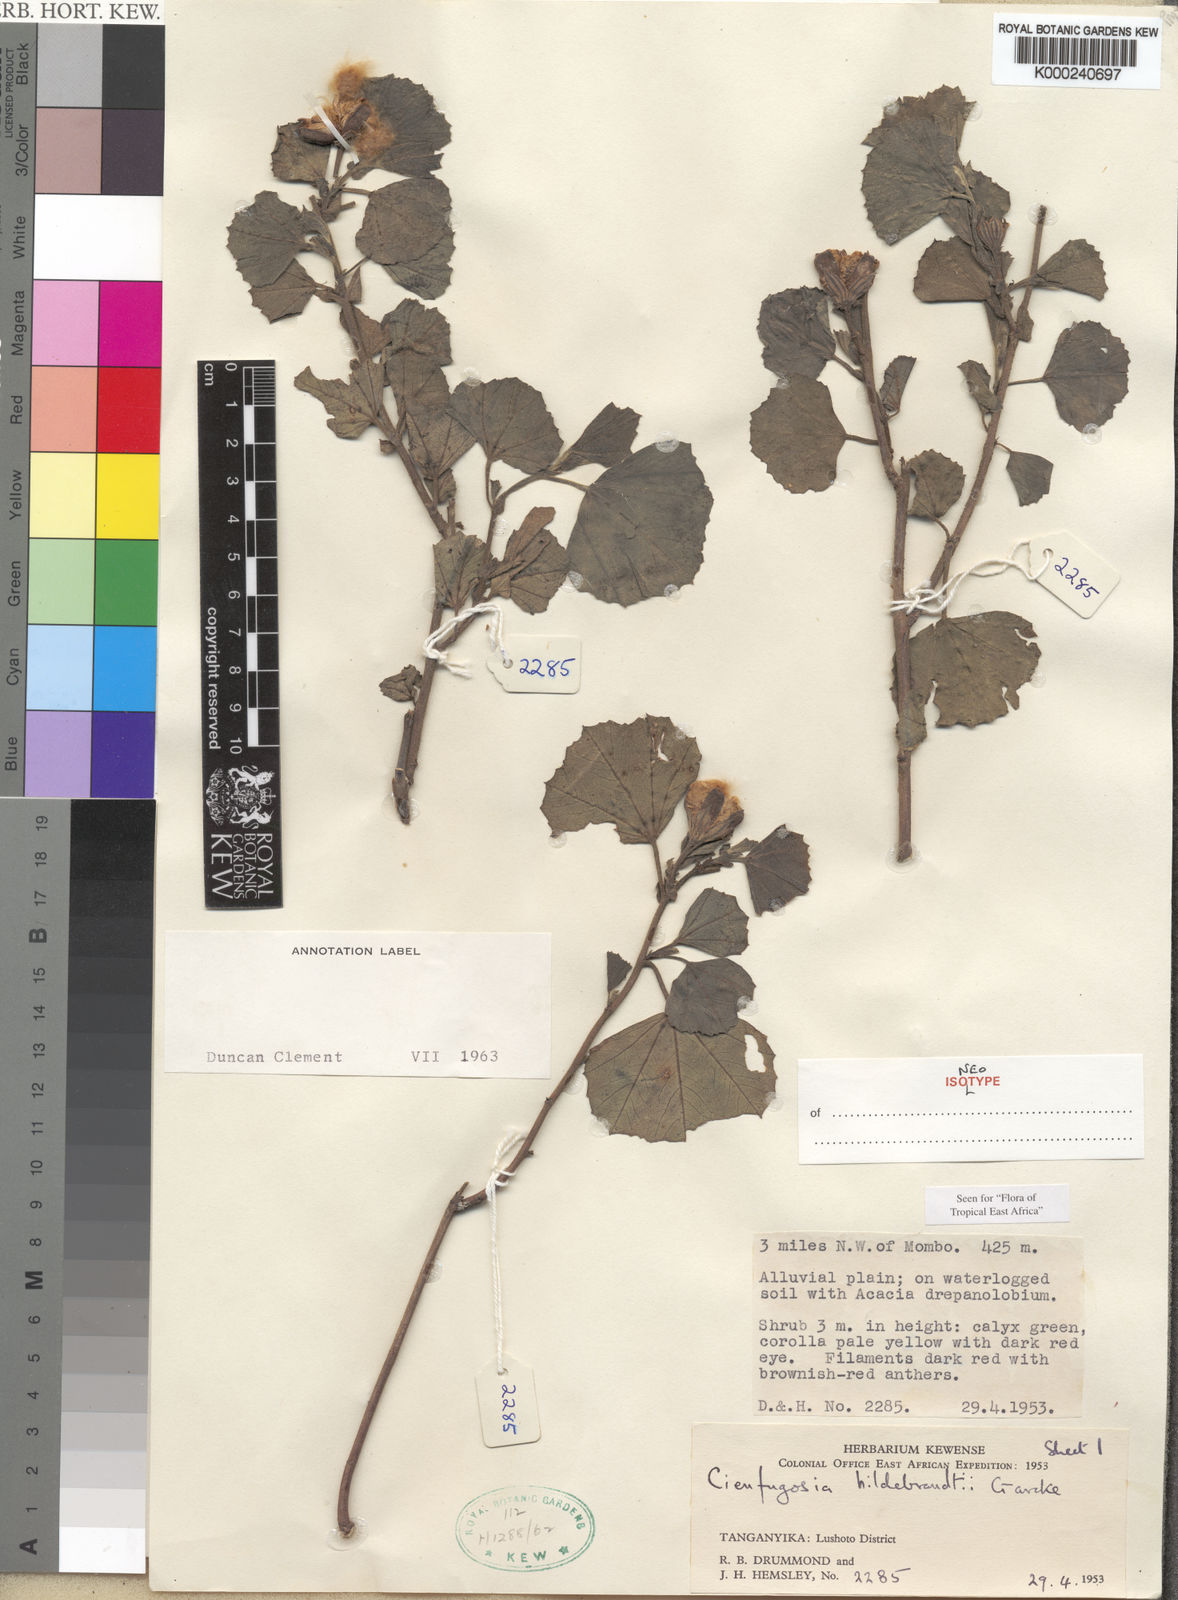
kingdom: Plantae
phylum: Tracheophyta
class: Magnoliopsida
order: Malvales
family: Malvaceae
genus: Cienfuegosia
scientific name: Cienfuegosia hildebrandtii
